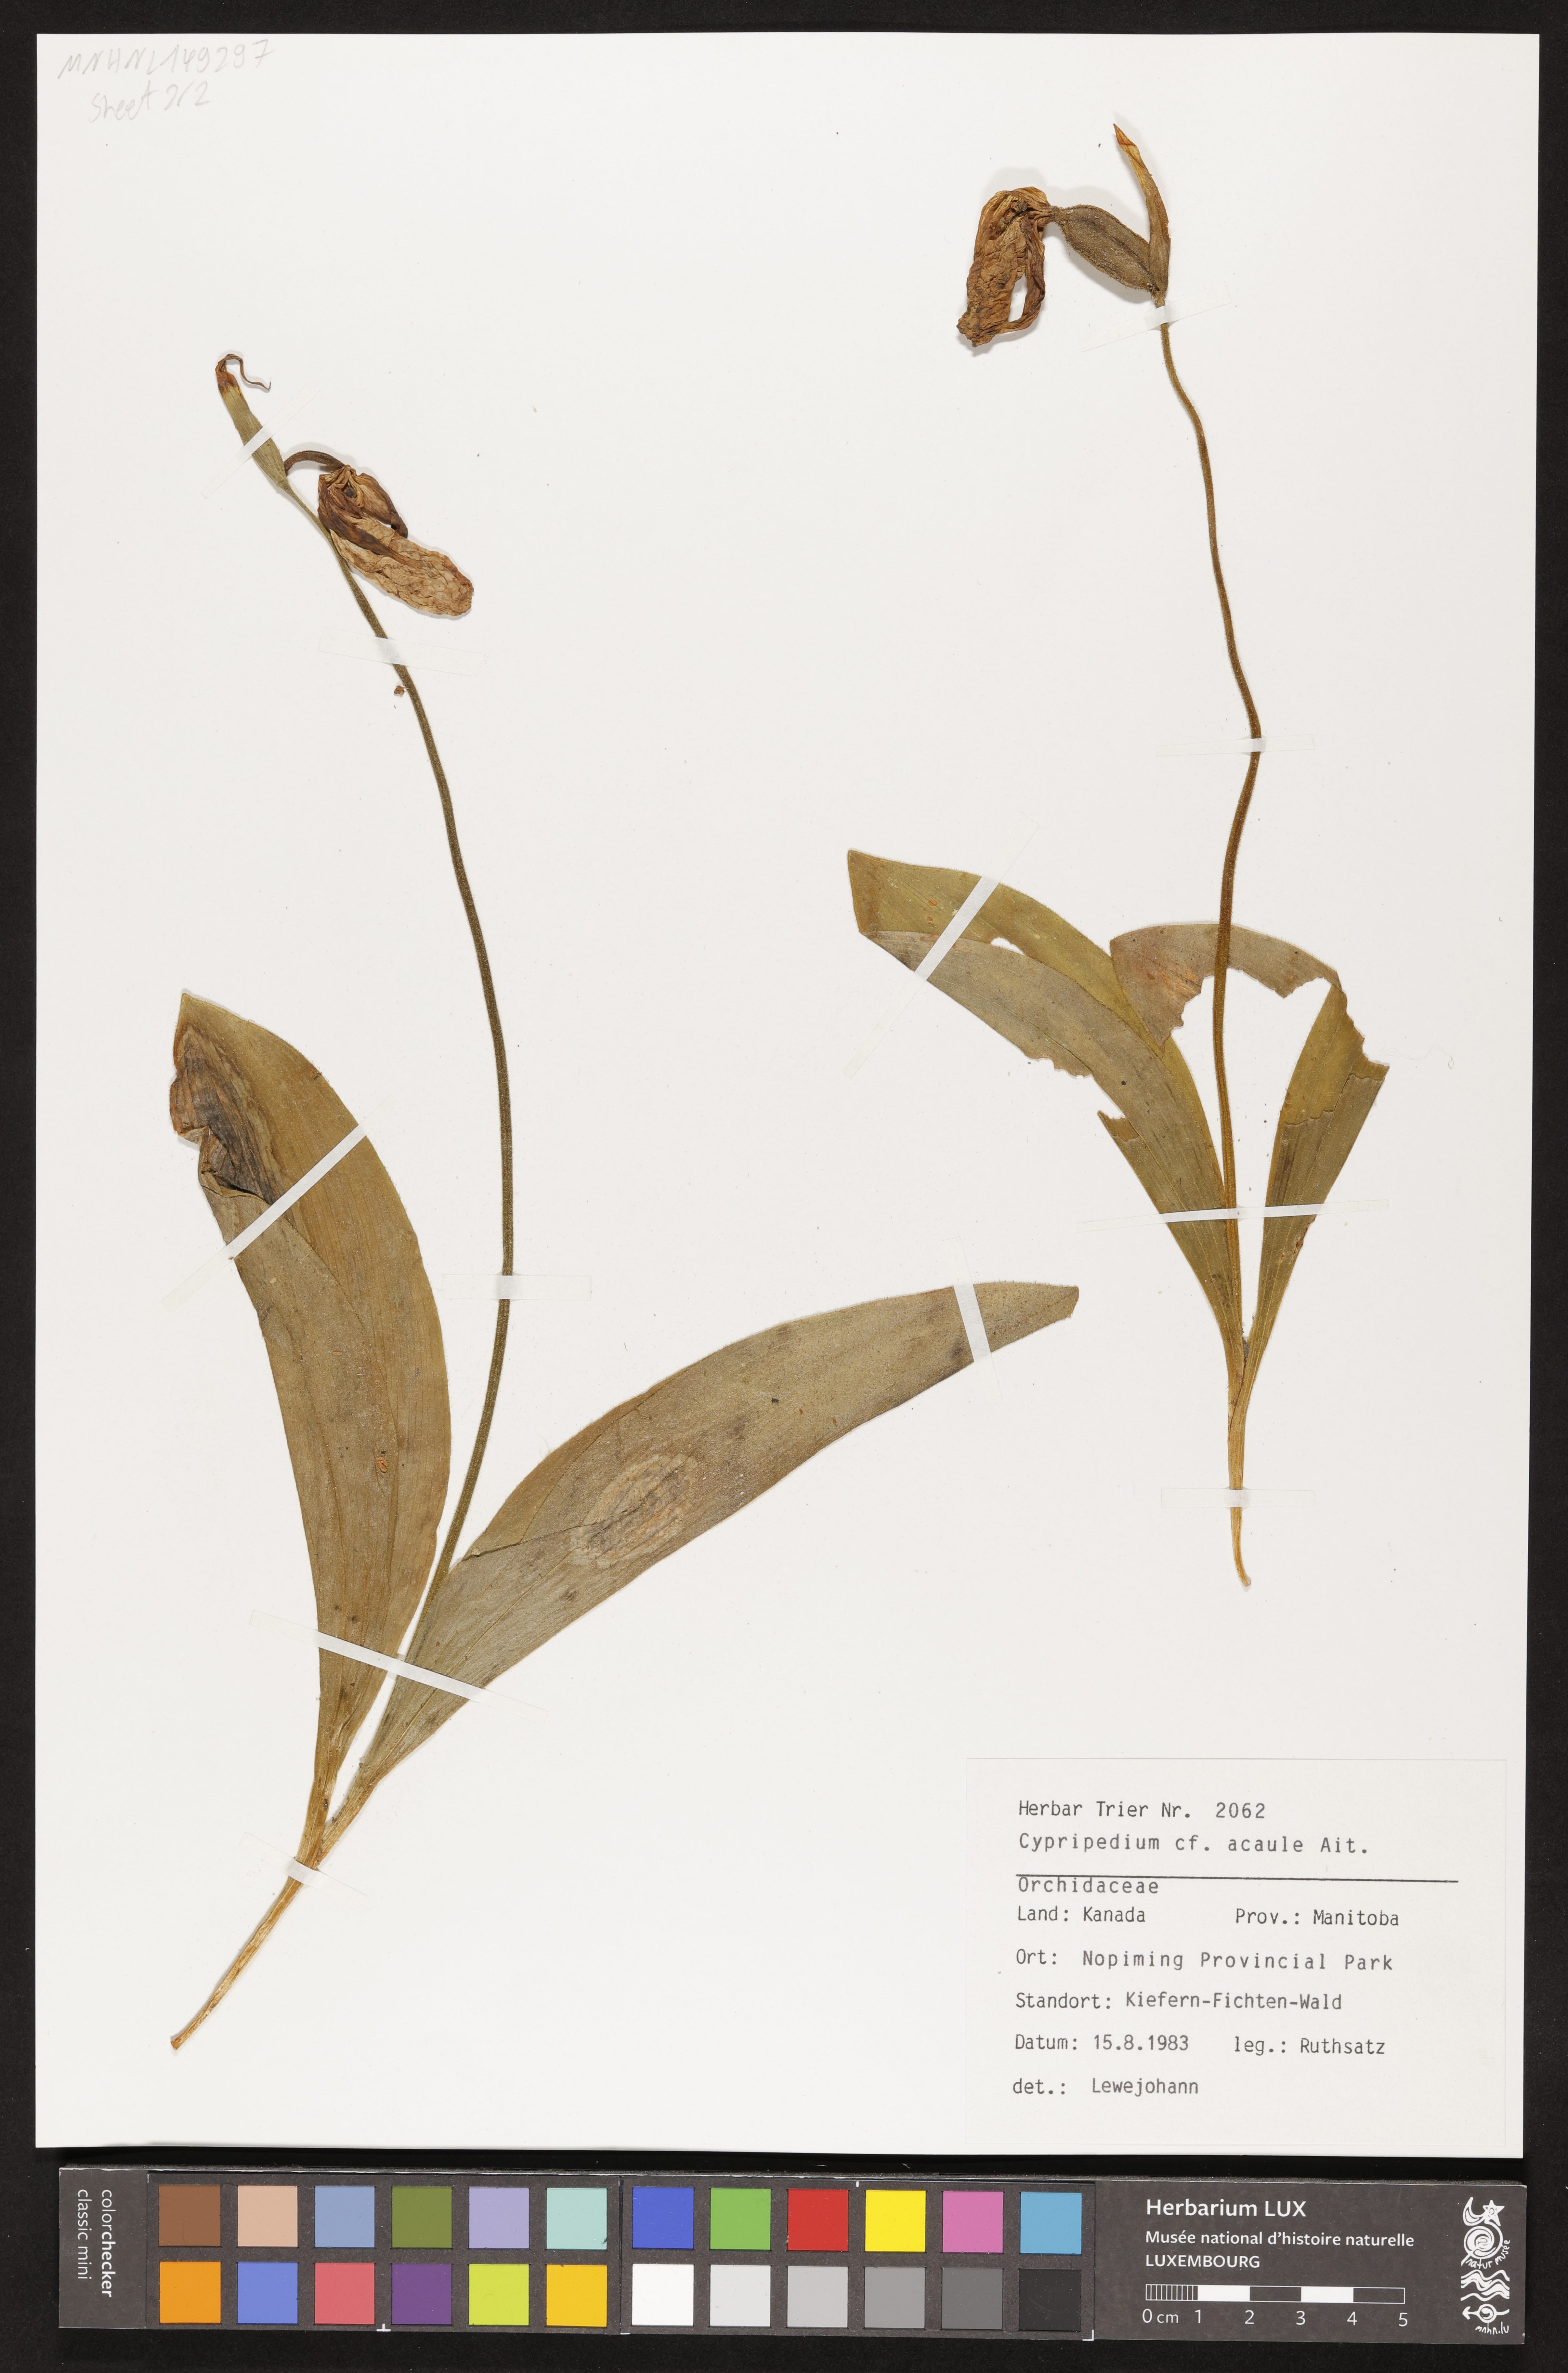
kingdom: Plantae
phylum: Tracheophyta
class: Liliopsida
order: Asparagales
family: Orchidaceae
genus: Cypripedium
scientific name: Cypripedium acaule
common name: Pink lady's-slipper
